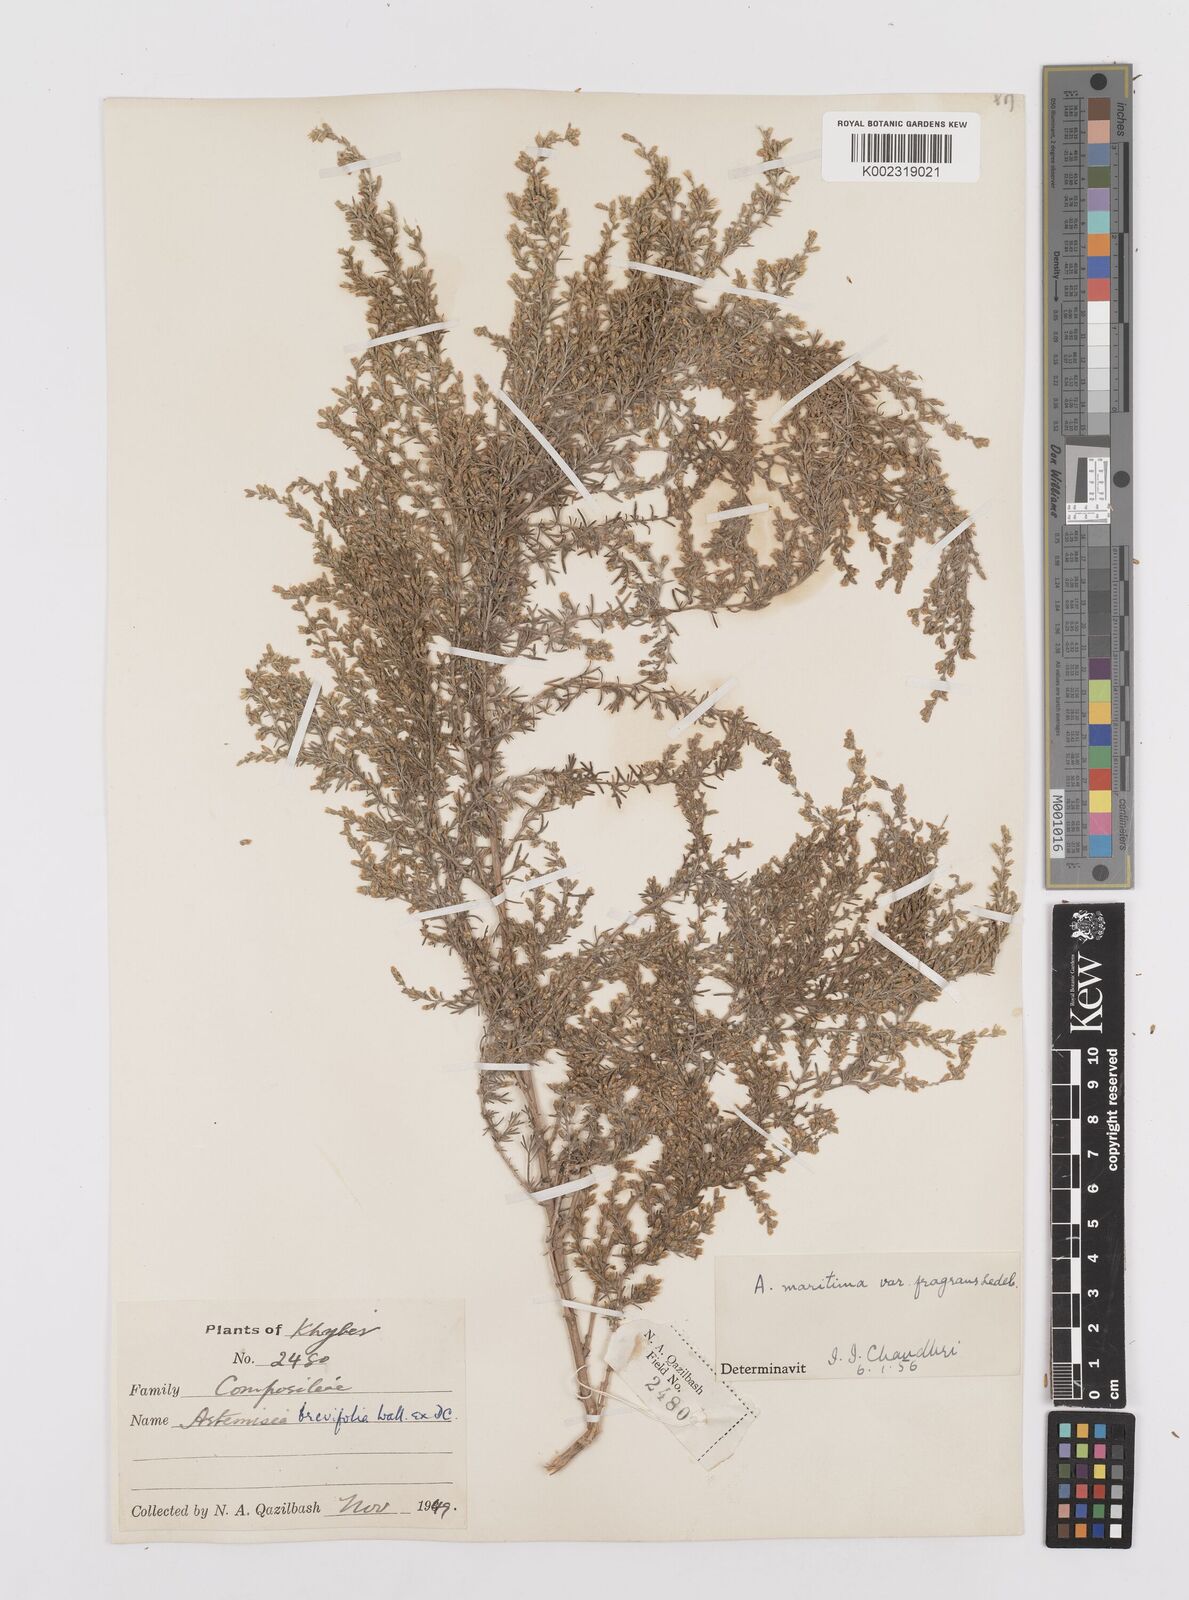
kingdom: Plantae
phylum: Tracheophyta
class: Magnoliopsida
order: Asterales
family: Asteraceae
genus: Artemisia
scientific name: Artemisia kurramensis
